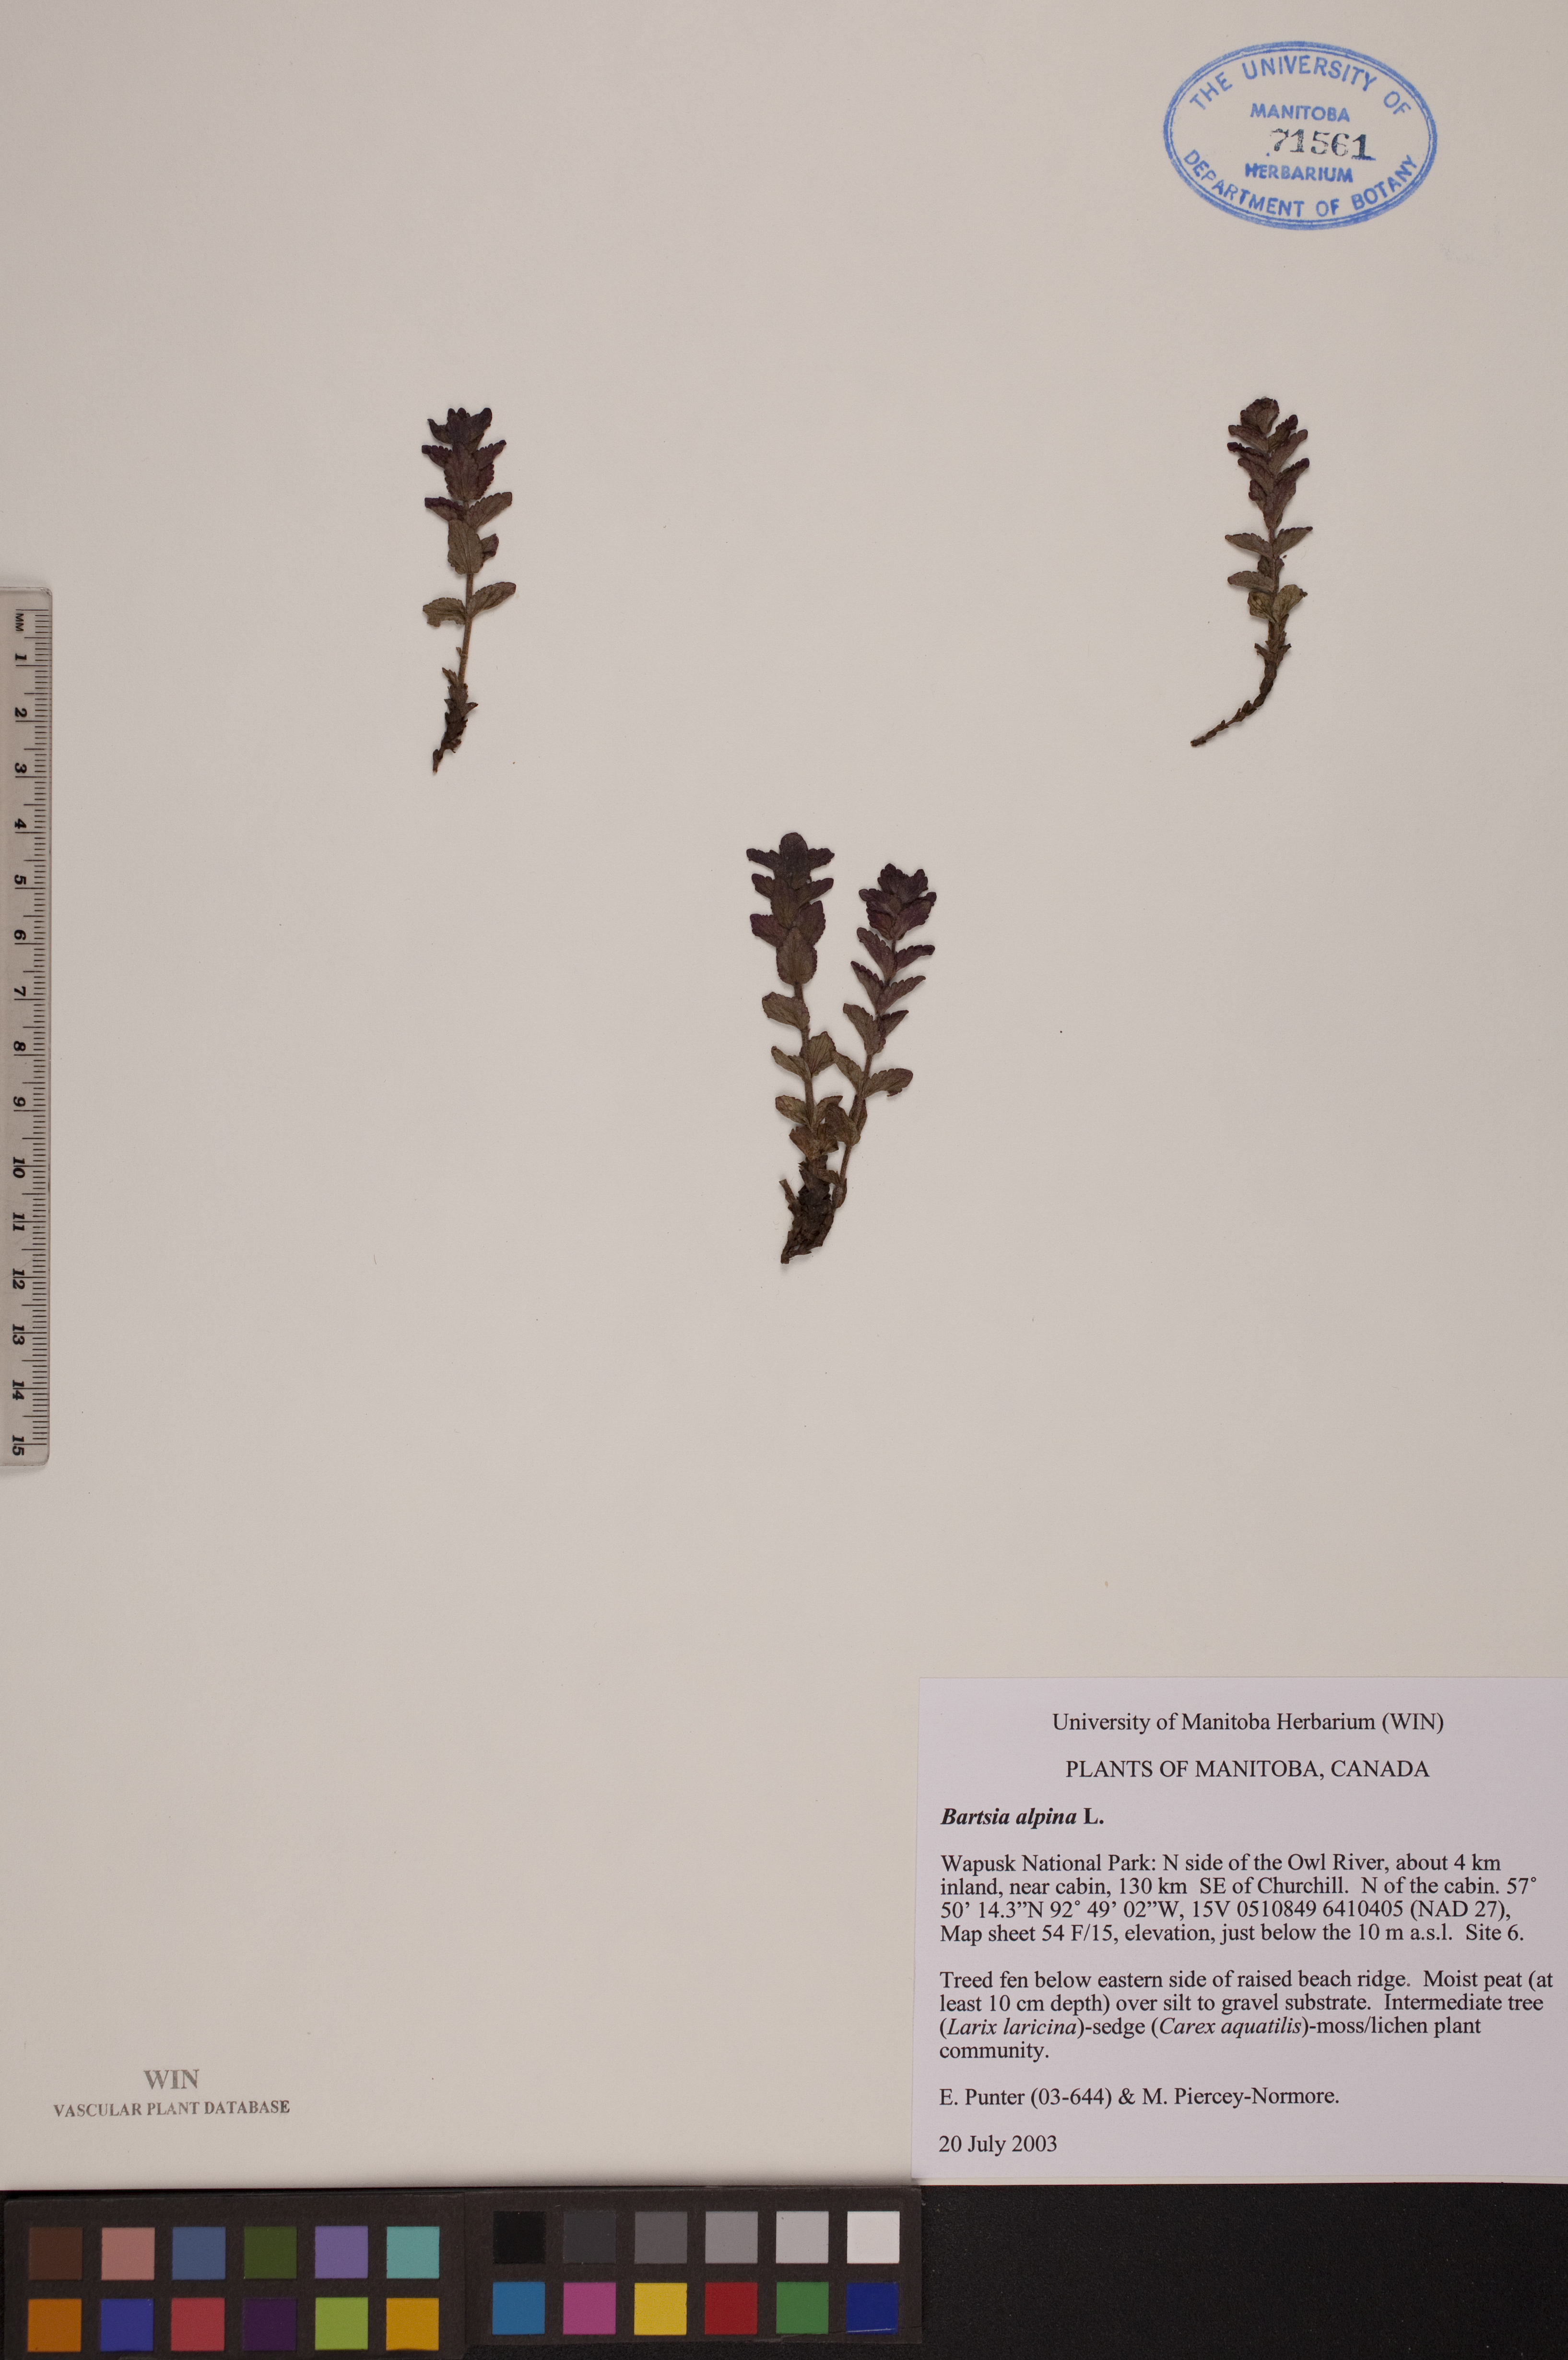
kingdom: Plantae
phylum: Tracheophyta
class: Magnoliopsida
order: Lamiales
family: Orobanchaceae
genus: Bartsia
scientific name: Bartsia alpina
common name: Alpine bartsia
